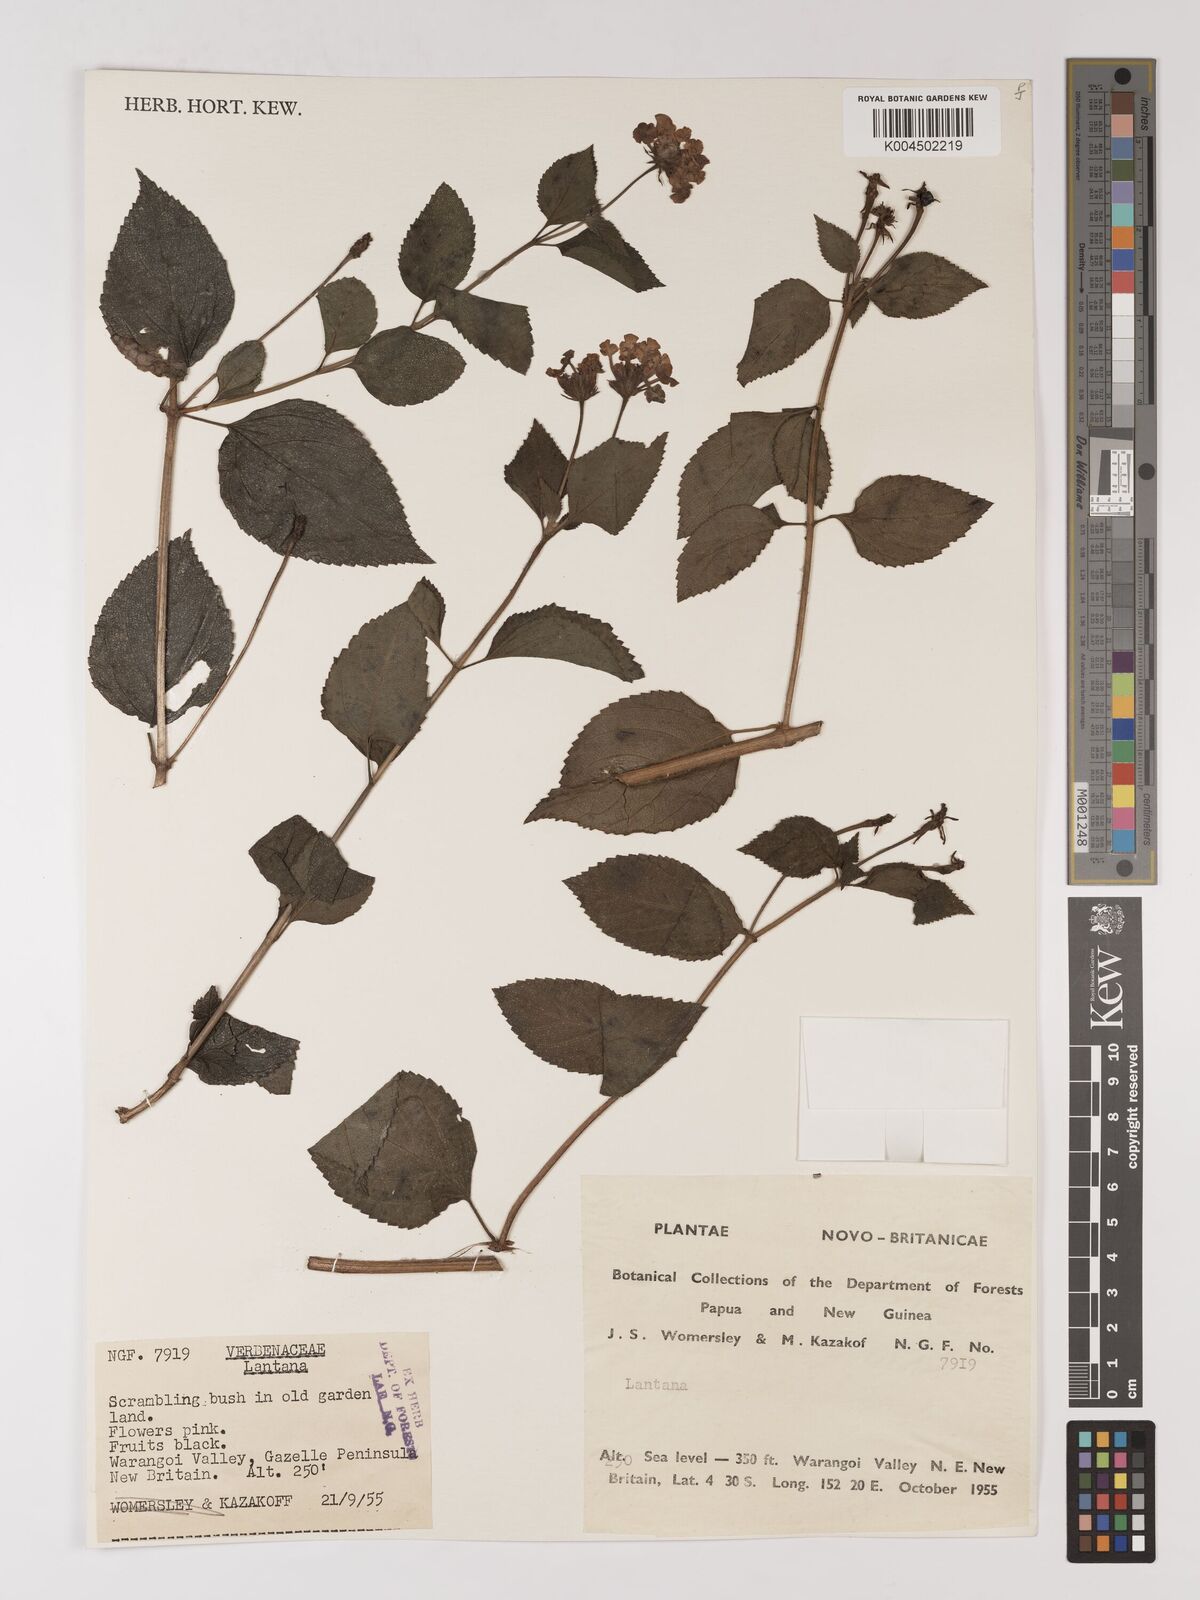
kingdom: Plantae
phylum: Tracheophyta
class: Magnoliopsida
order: Lamiales
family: Verbenaceae
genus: Lantana
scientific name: Lantana camara
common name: Lantana
